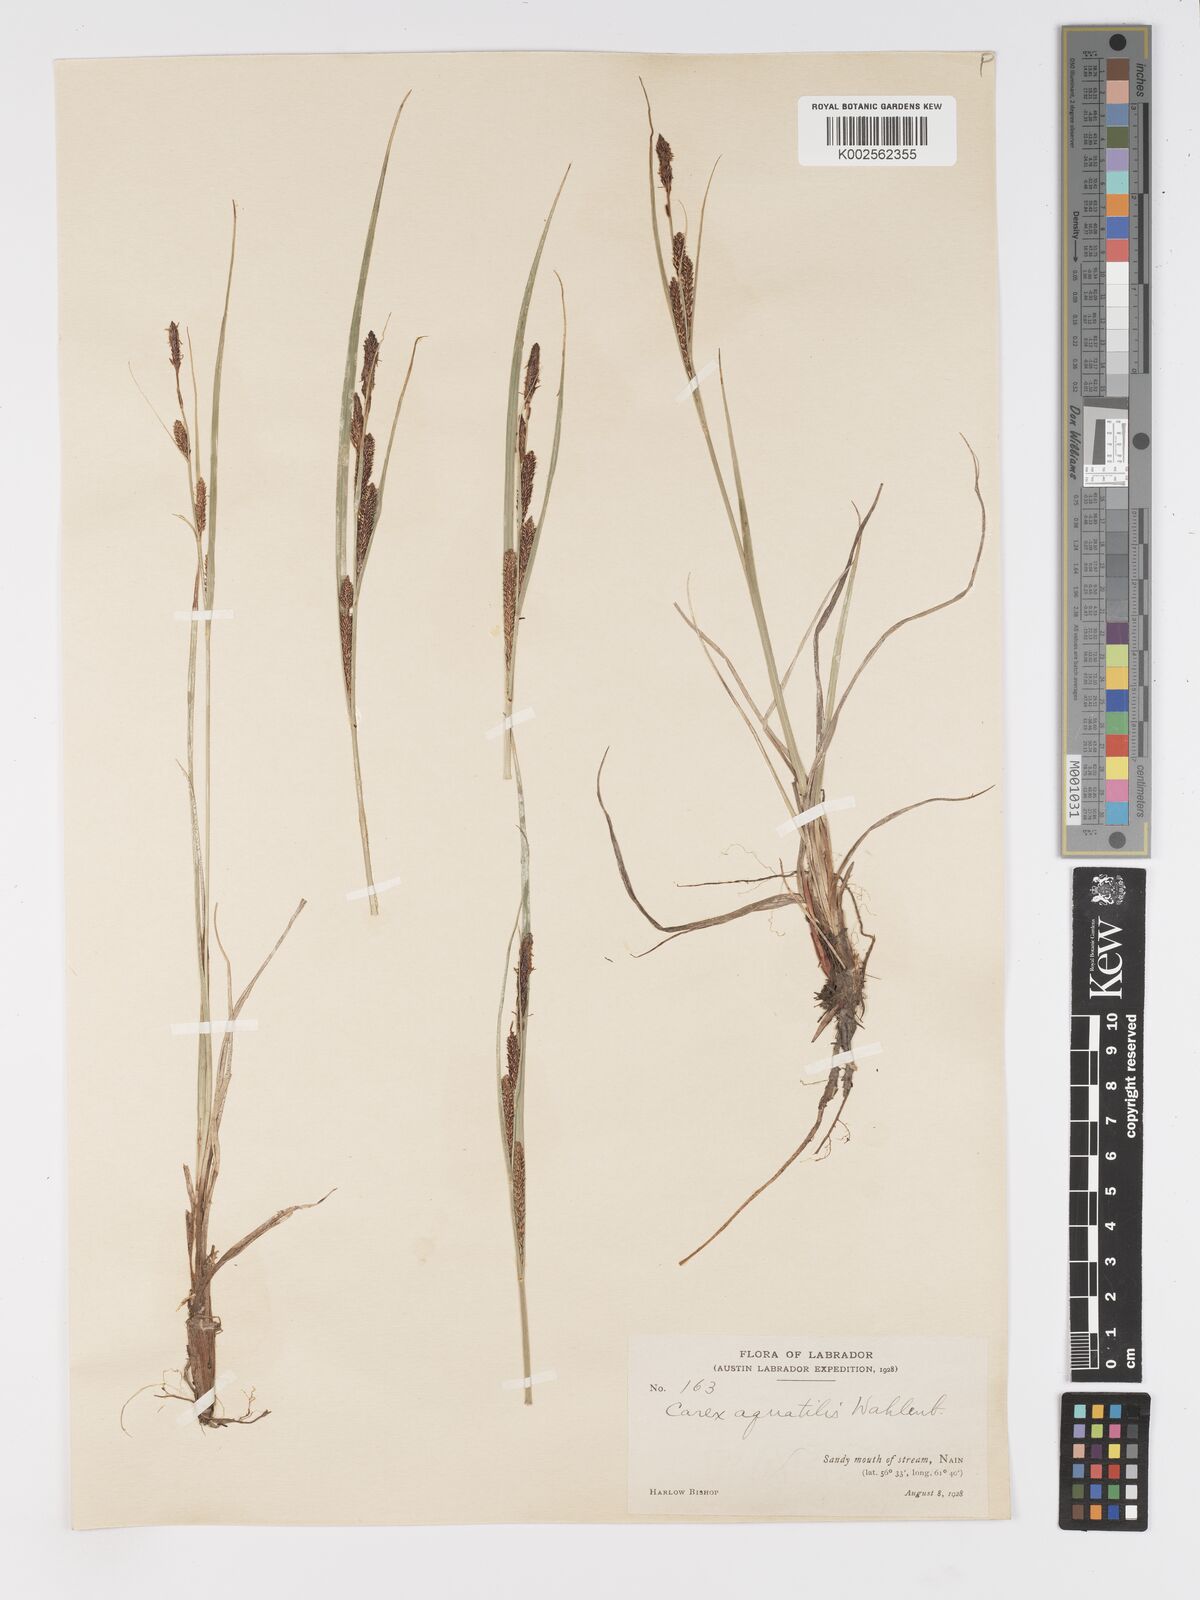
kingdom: Plantae
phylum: Tracheophyta
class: Liliopsida
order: Poales
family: Cyperaceae
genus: Carex
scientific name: Carex aquatilis
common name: Water sedge
